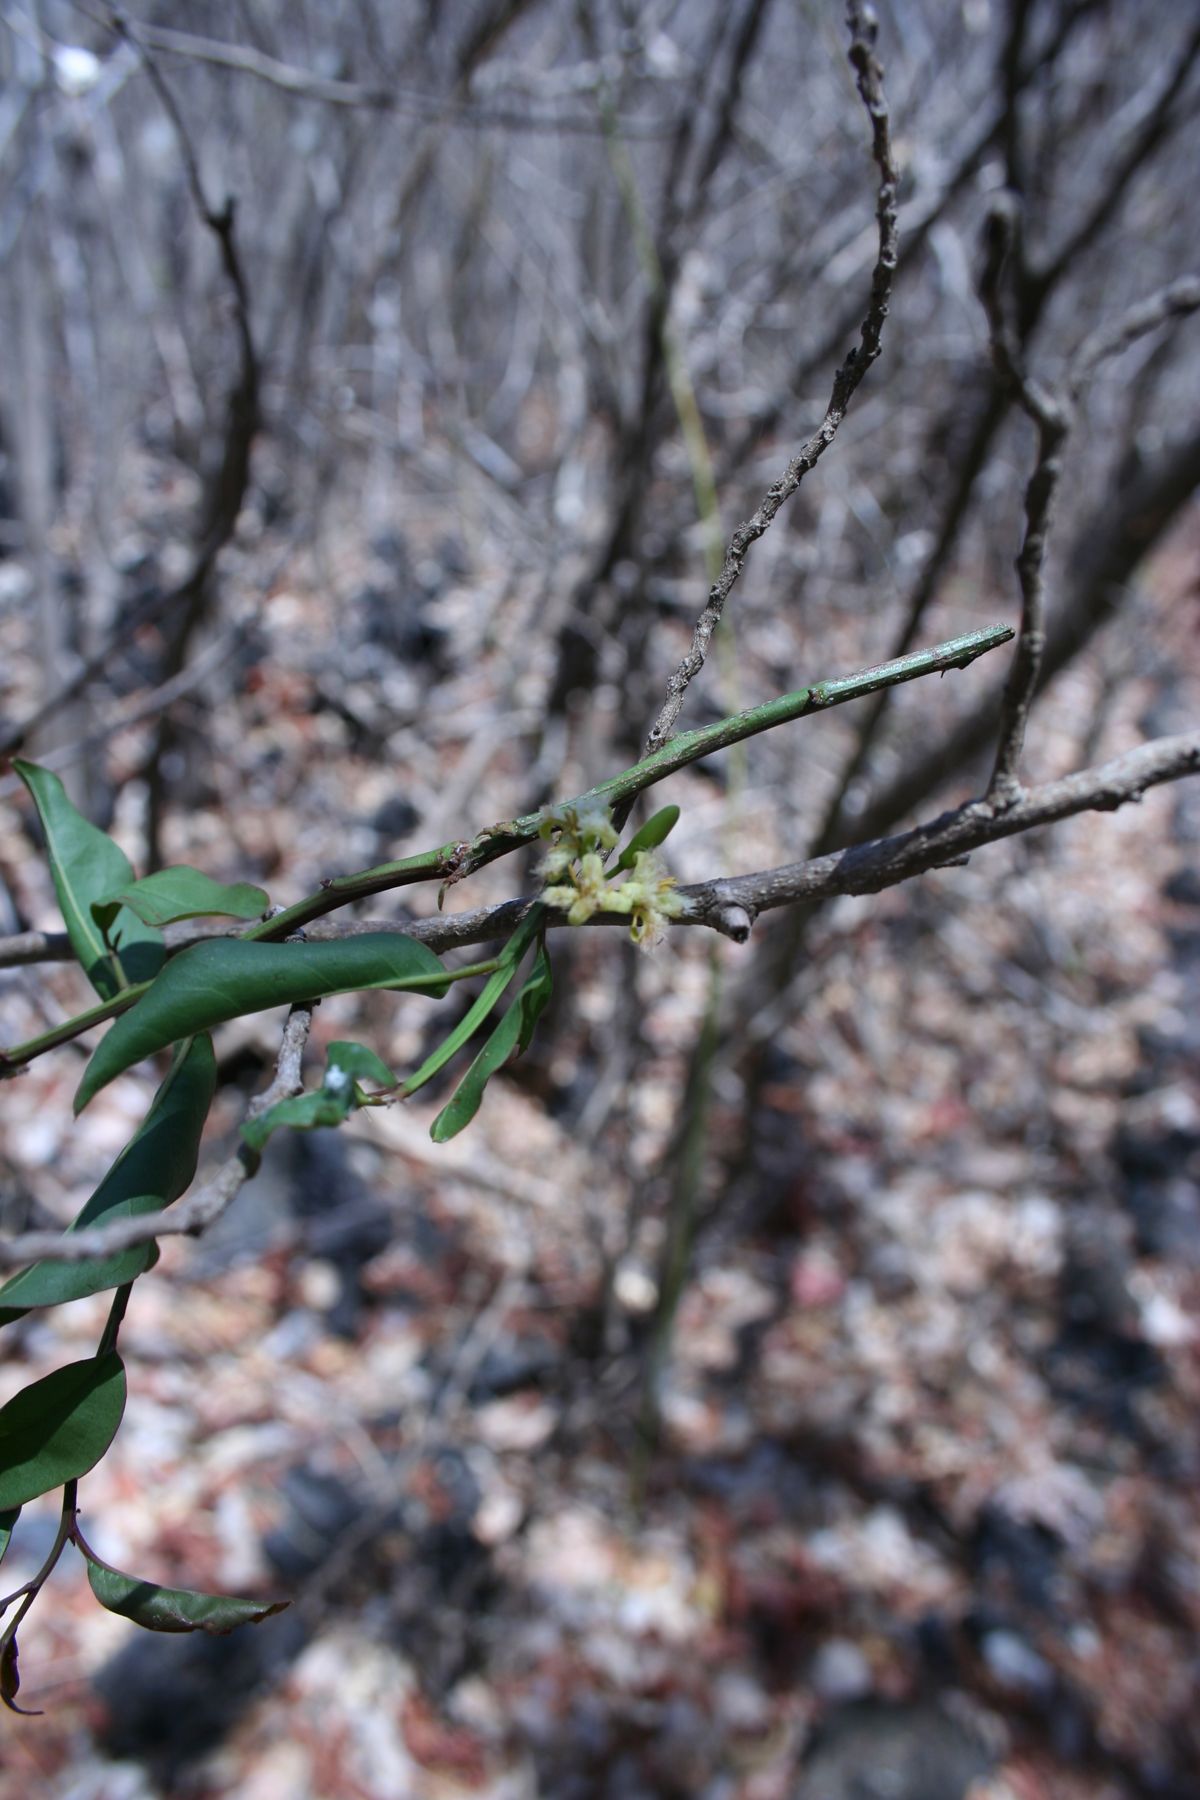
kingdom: Plantae
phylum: Tracheophyta
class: Magnoliopsida
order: Santalales
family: Ximeniaceae
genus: Ximenia
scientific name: Ximenia americana
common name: Tallowwood
